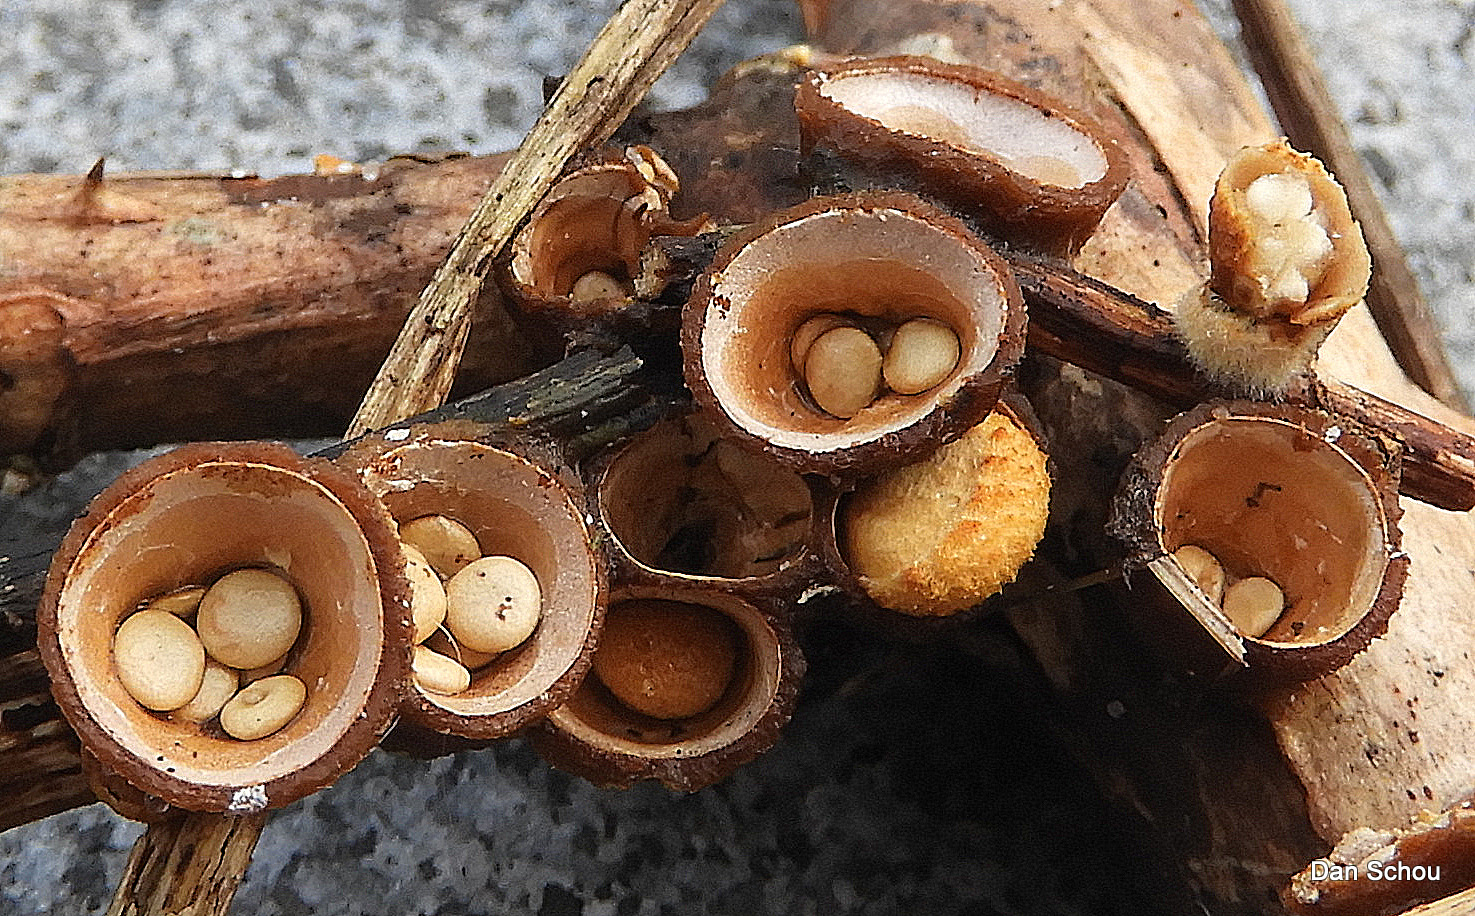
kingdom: Fungi
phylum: Basidiomycota
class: Agaricomycetes
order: Agaricales
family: Nidulariaceae
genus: Crucibulum
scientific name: Crucibulum crucibuliforme
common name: krukkesvamp
